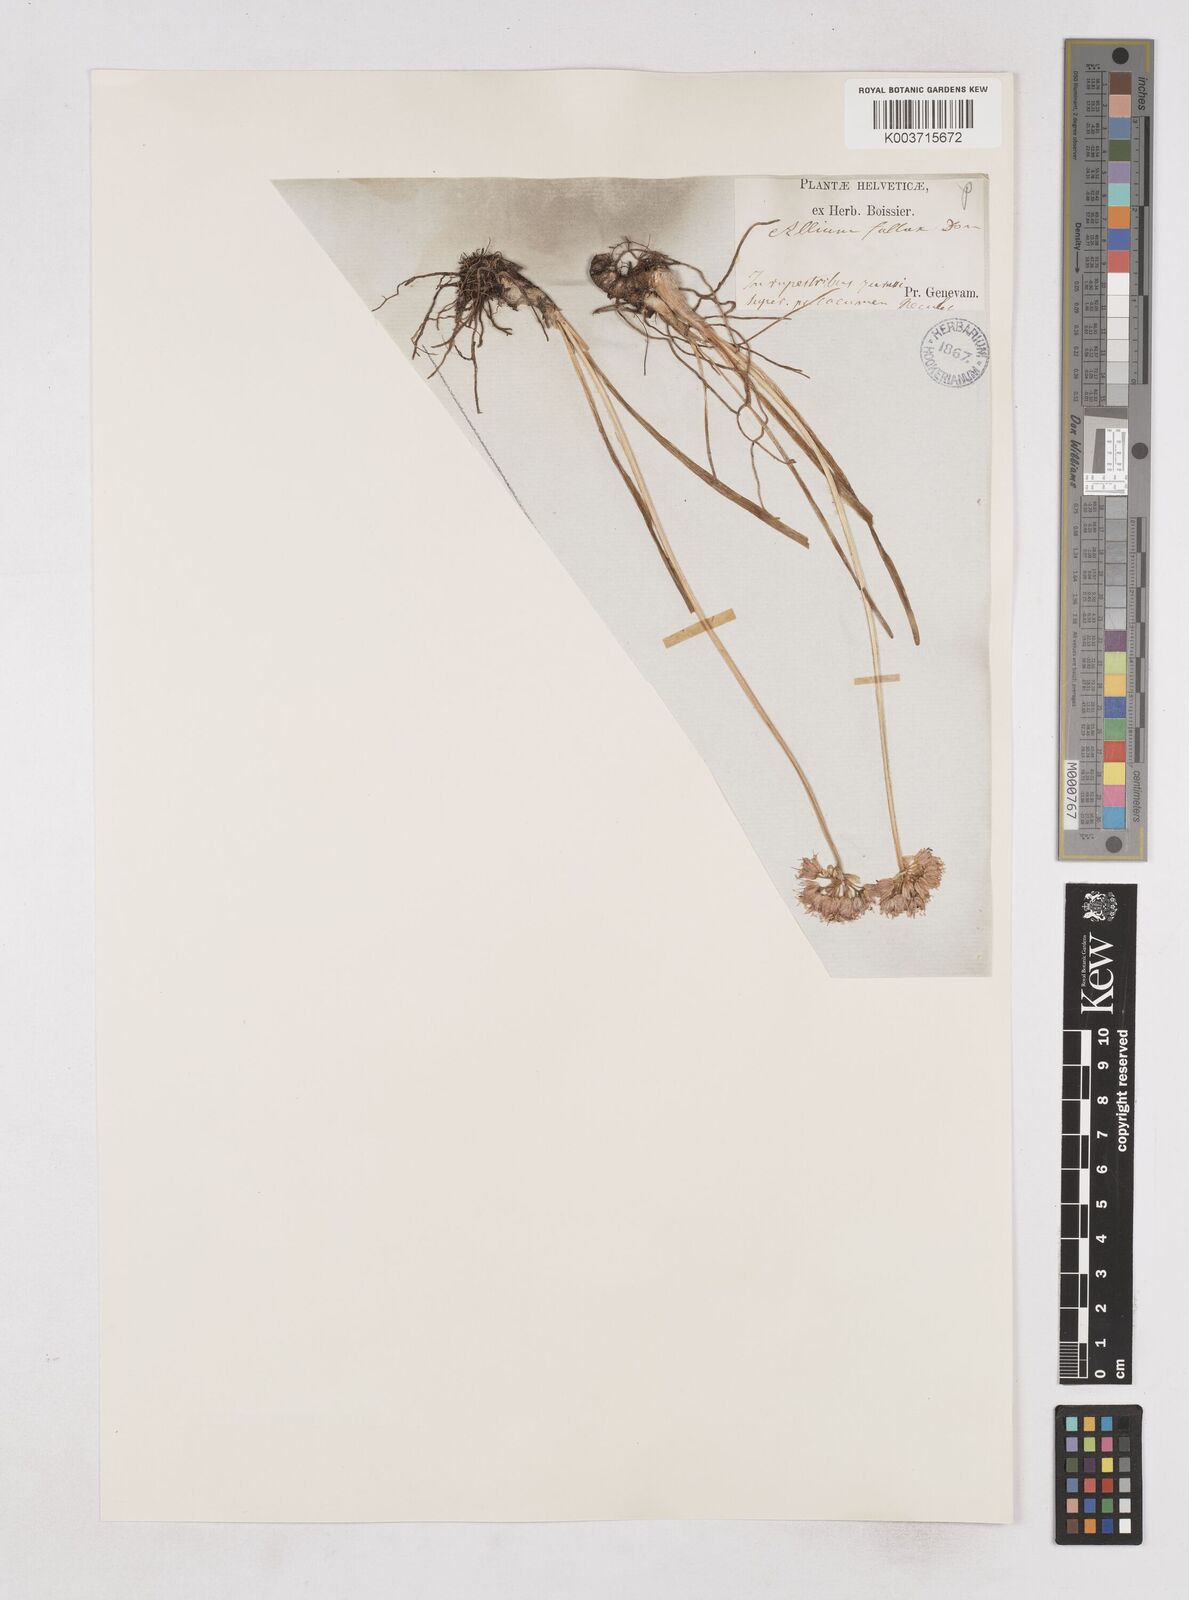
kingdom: Plantae
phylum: Tracheophyta
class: Liliopsida
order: Asparagales
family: Amaryllidaceae
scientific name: Amaryllidaceae
